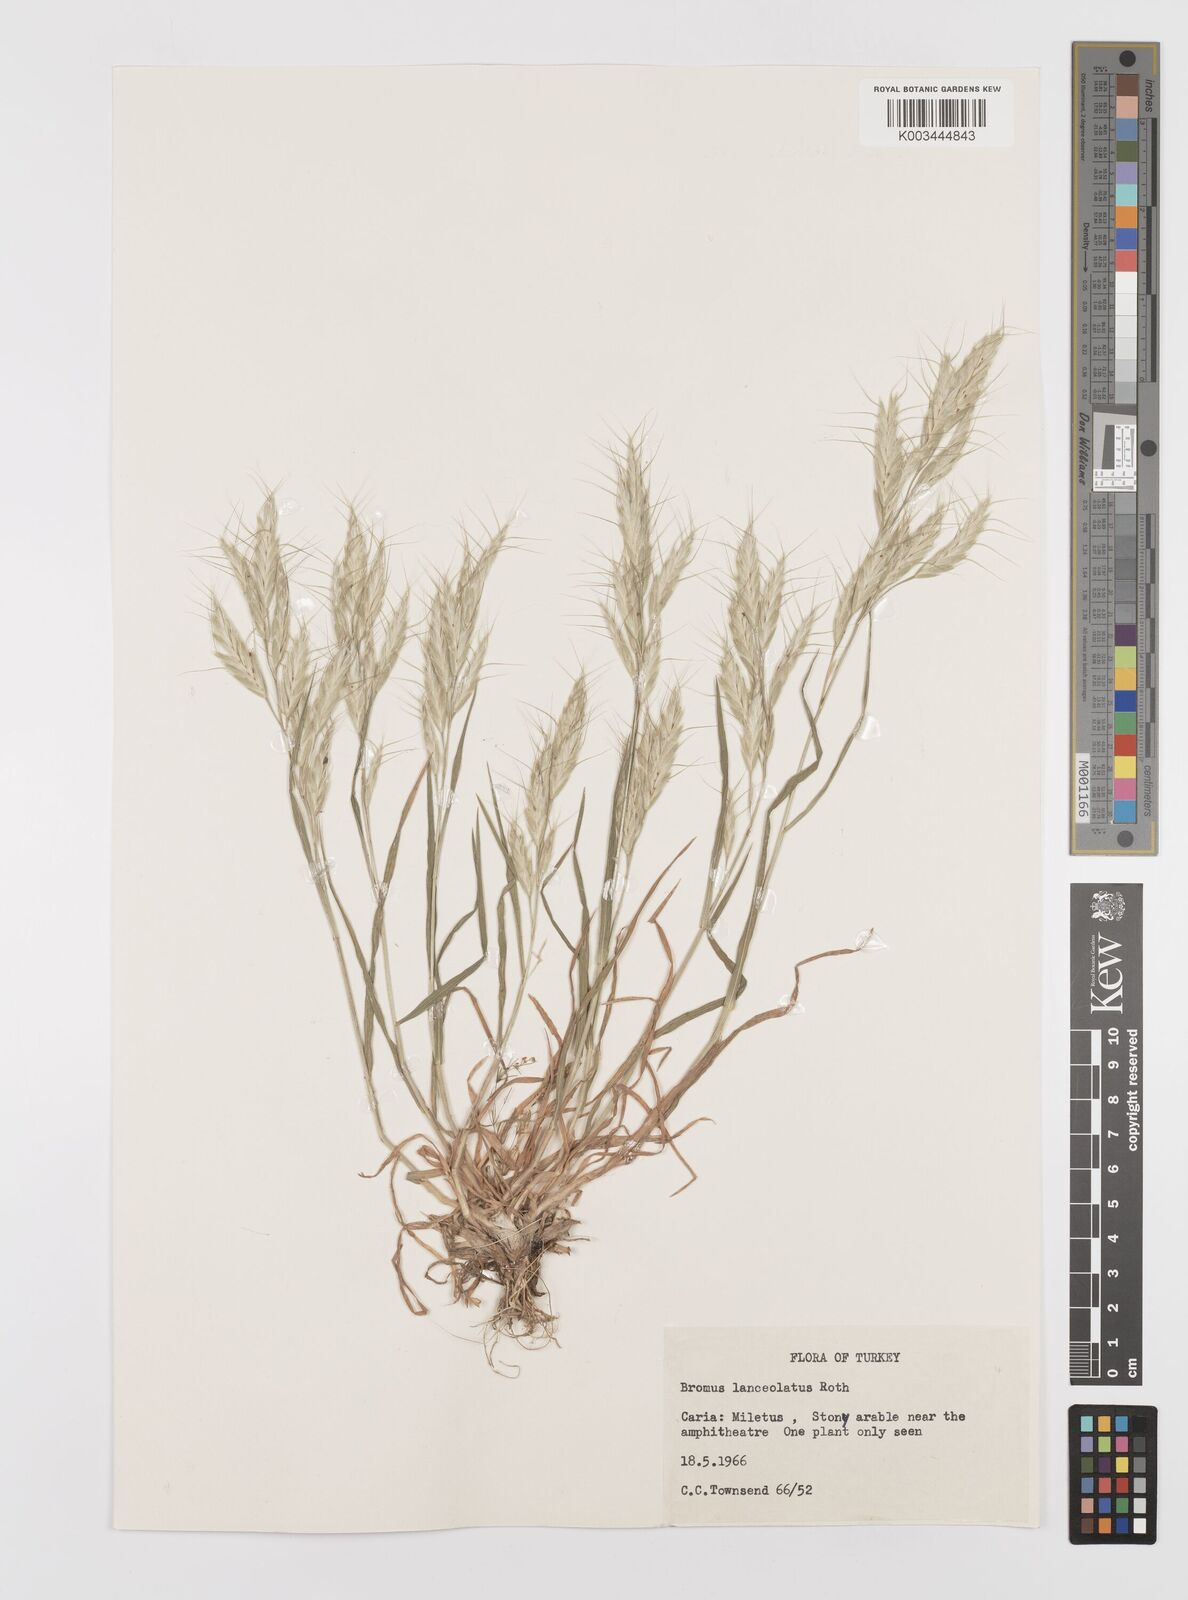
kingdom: Plantae
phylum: Tracheophyta
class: Liliopsida
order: Poales
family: Poaceae
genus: Bromus
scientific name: Bromus lanceolatus
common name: Mediterranean brome
